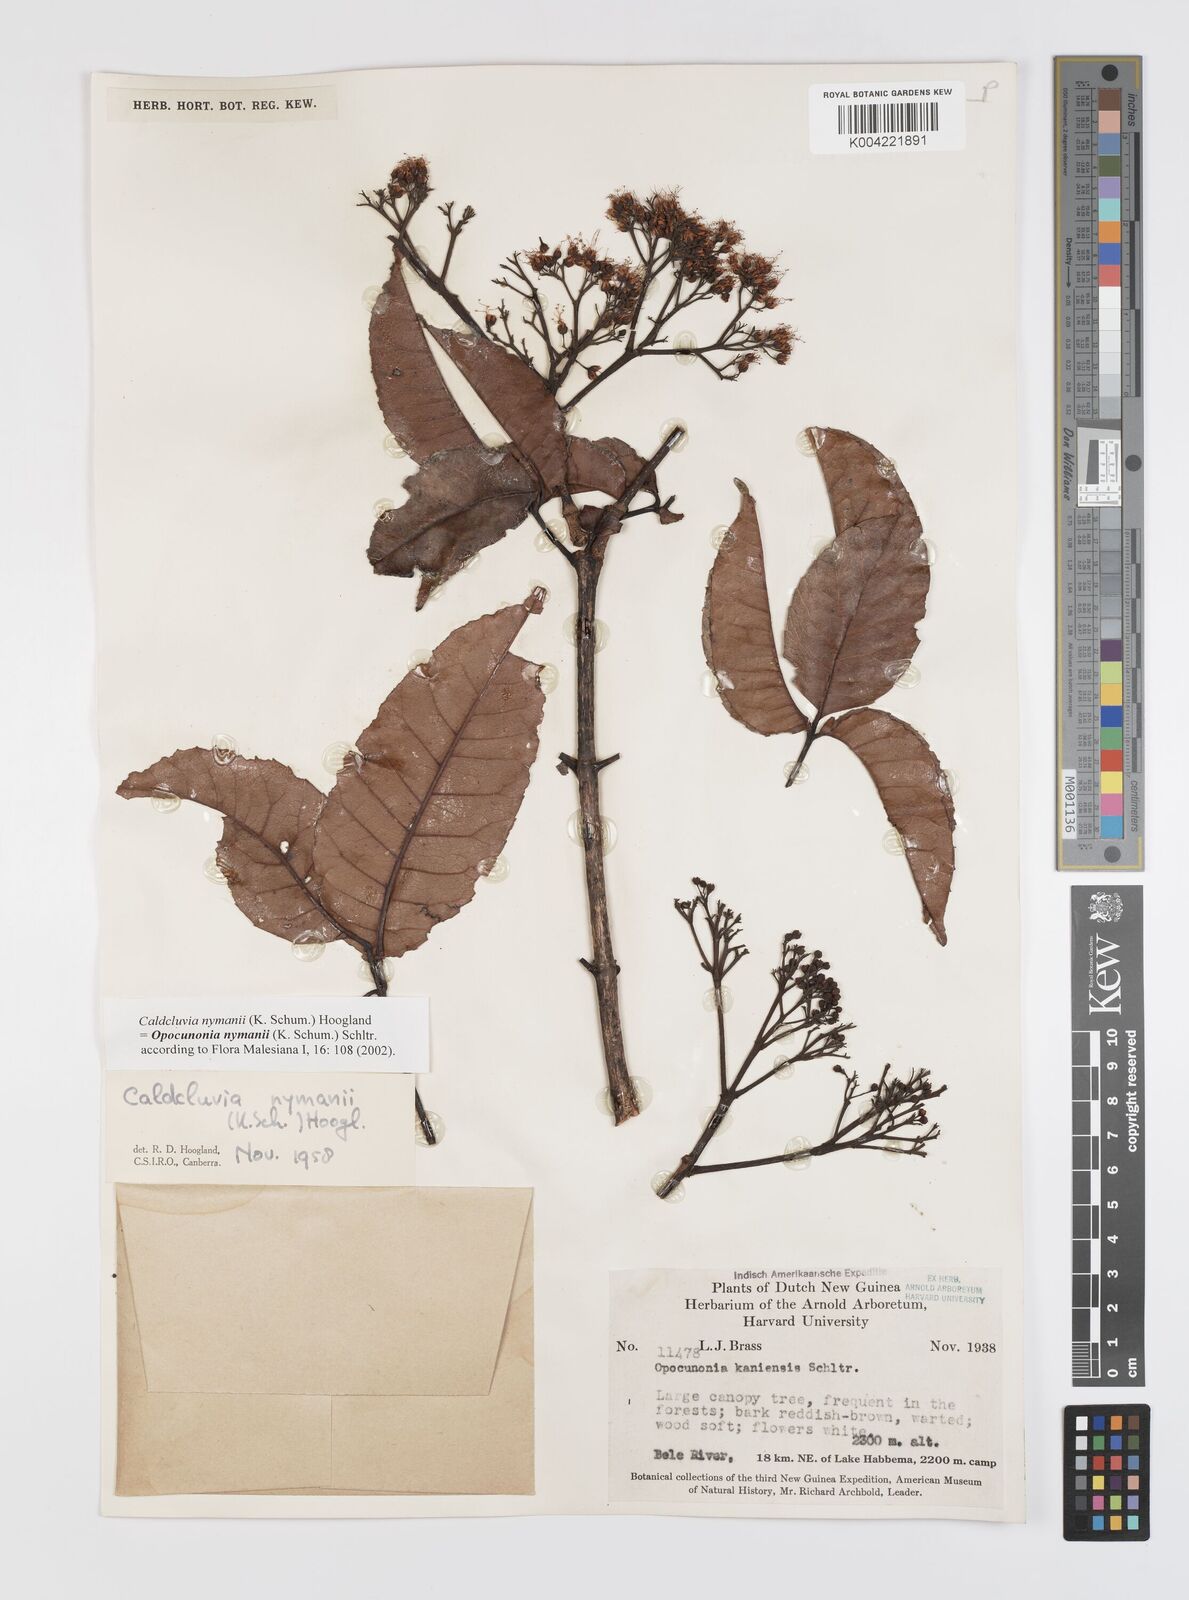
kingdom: Plantae
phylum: Tracheophyta
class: Magnoliopsida
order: Oxalidales
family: Cunoniaceae
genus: Opocunonia
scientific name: Opocunonia nymanii
